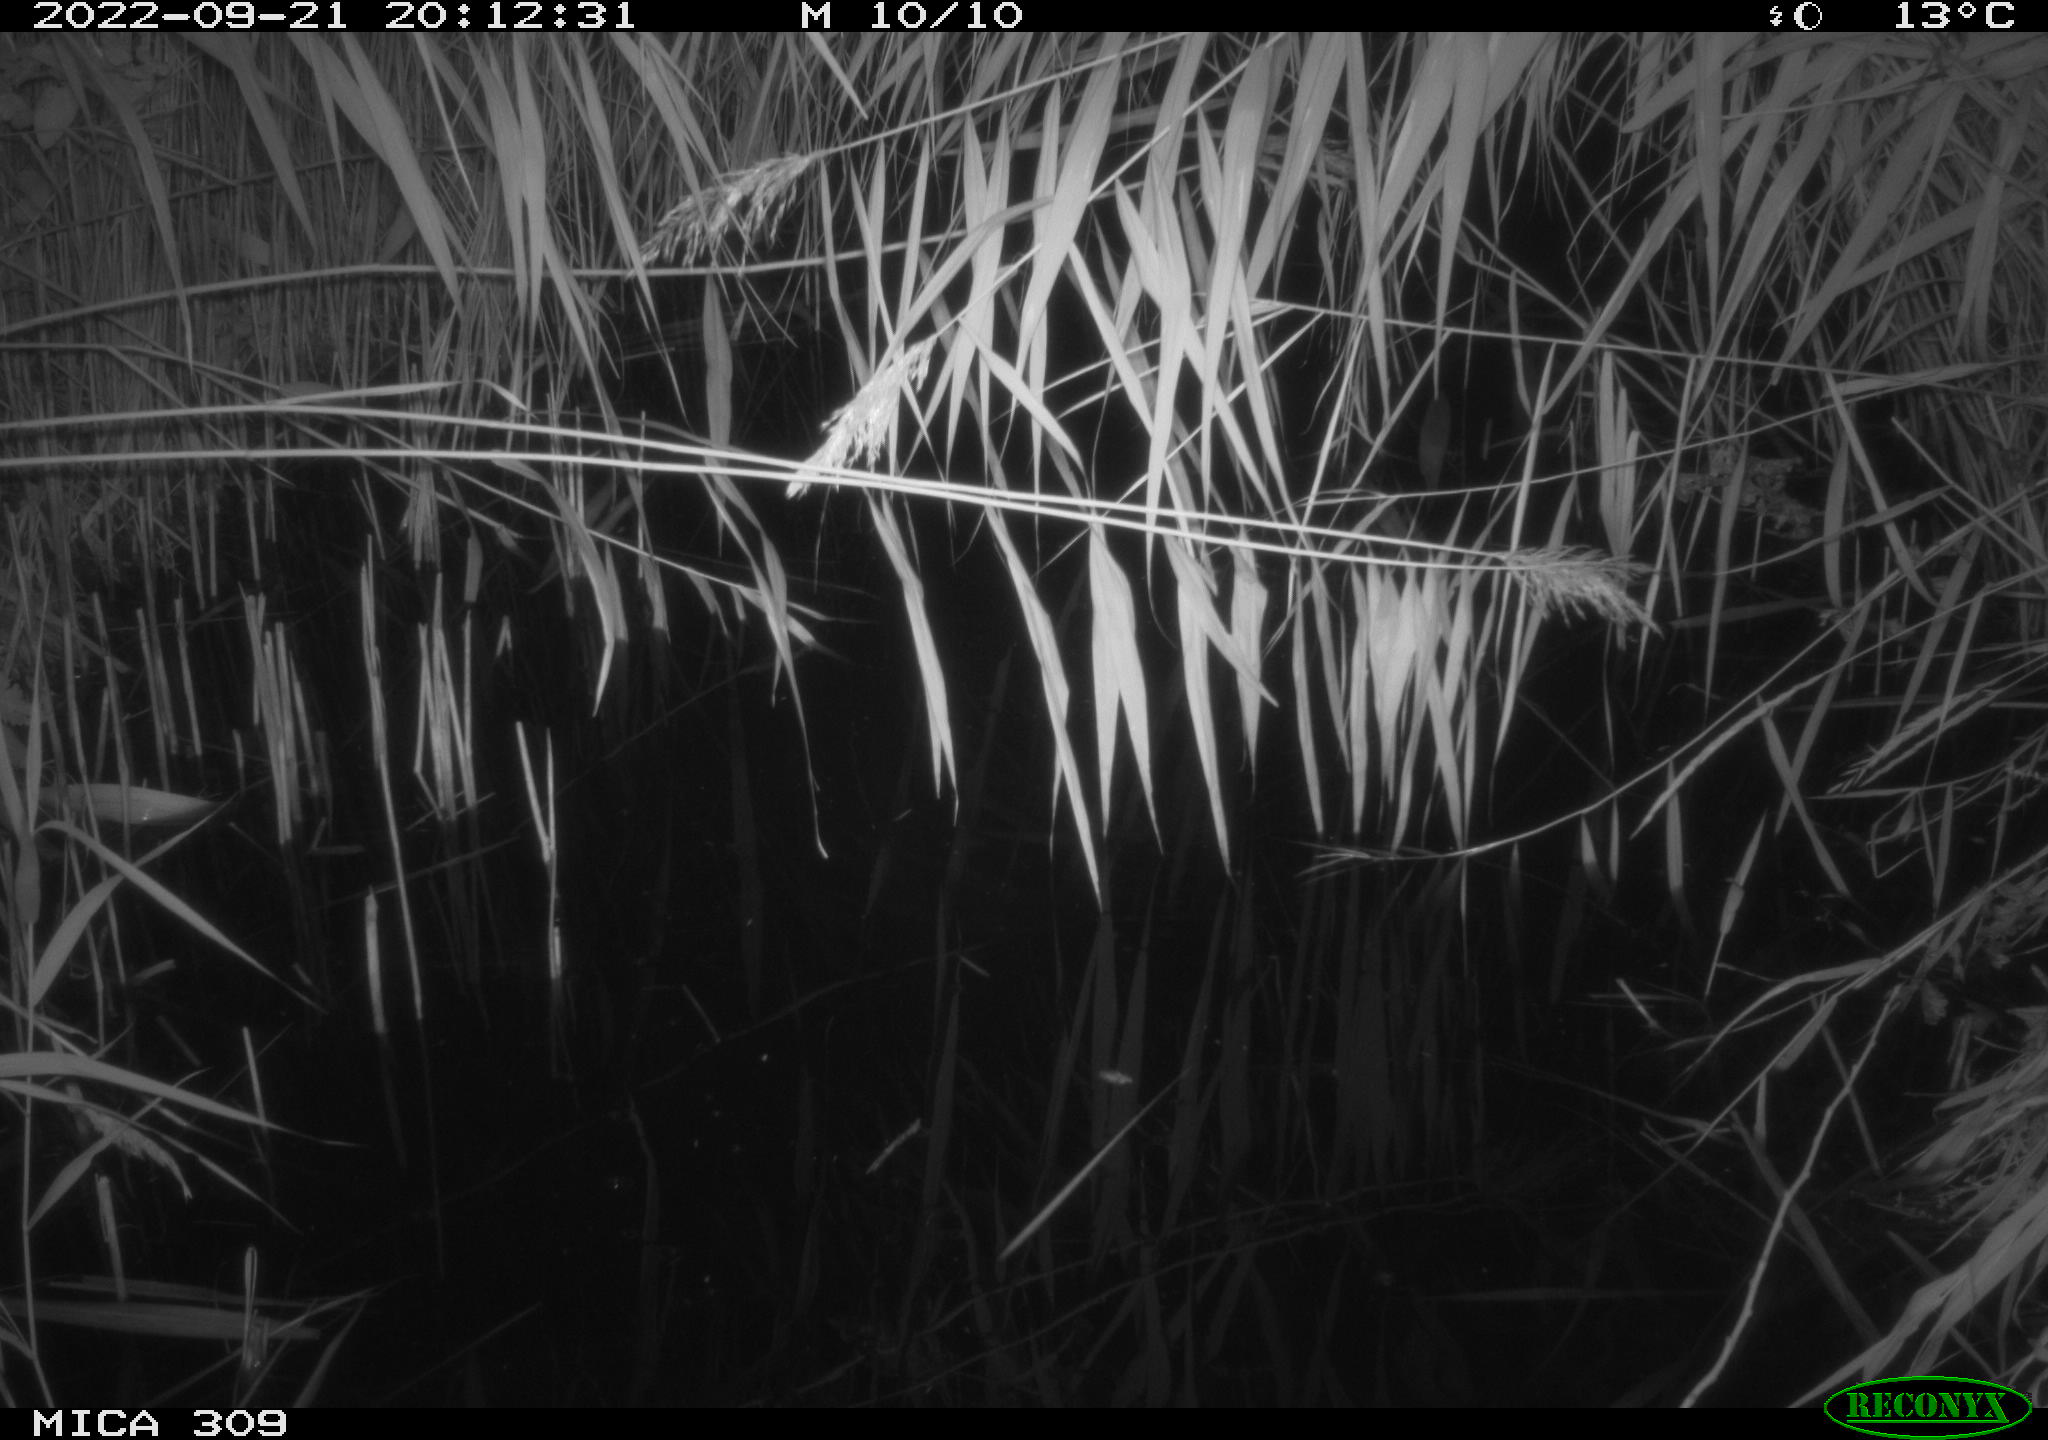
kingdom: Animalia
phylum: Chordata
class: Aves
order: Anseriformes
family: Anatidae
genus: Anas
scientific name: Anas
